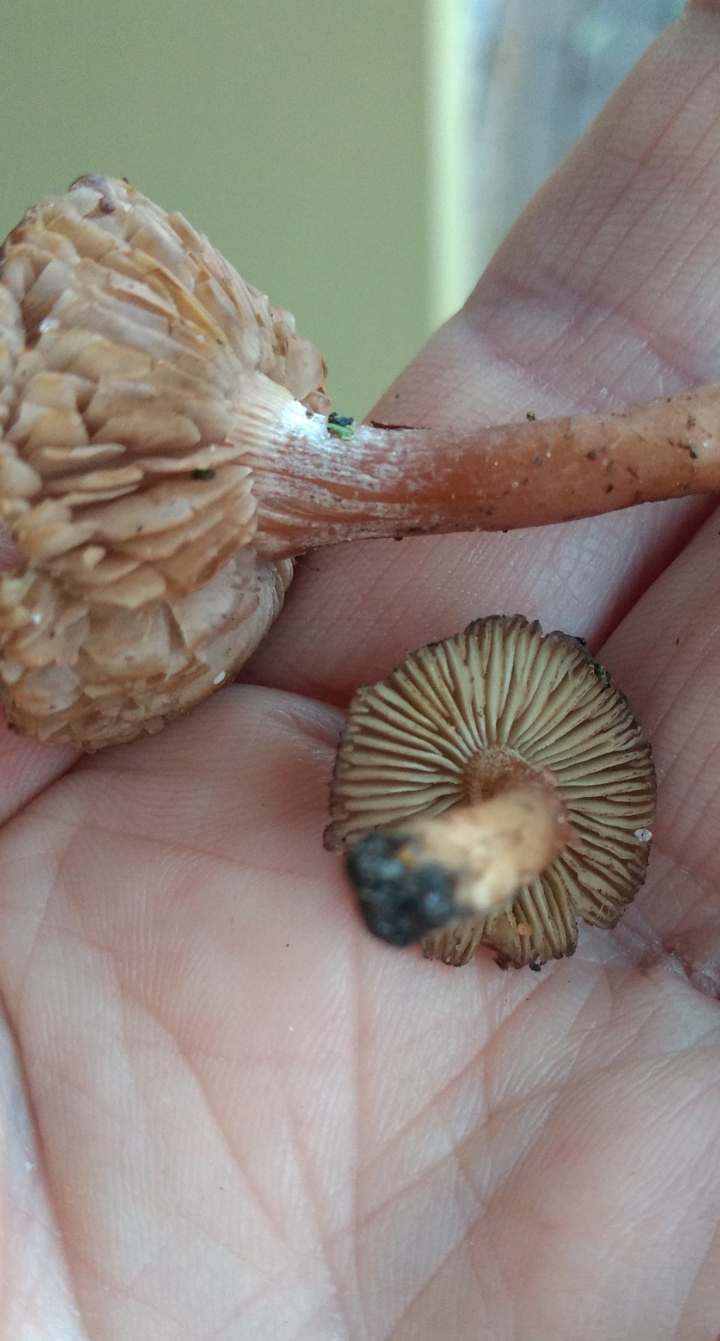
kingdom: Fungi
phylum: Basidiomycota
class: Agaricomycetes
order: Agaricales
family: Inocybaceae
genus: Inocybe
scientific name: Inocybe
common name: trævlhat
